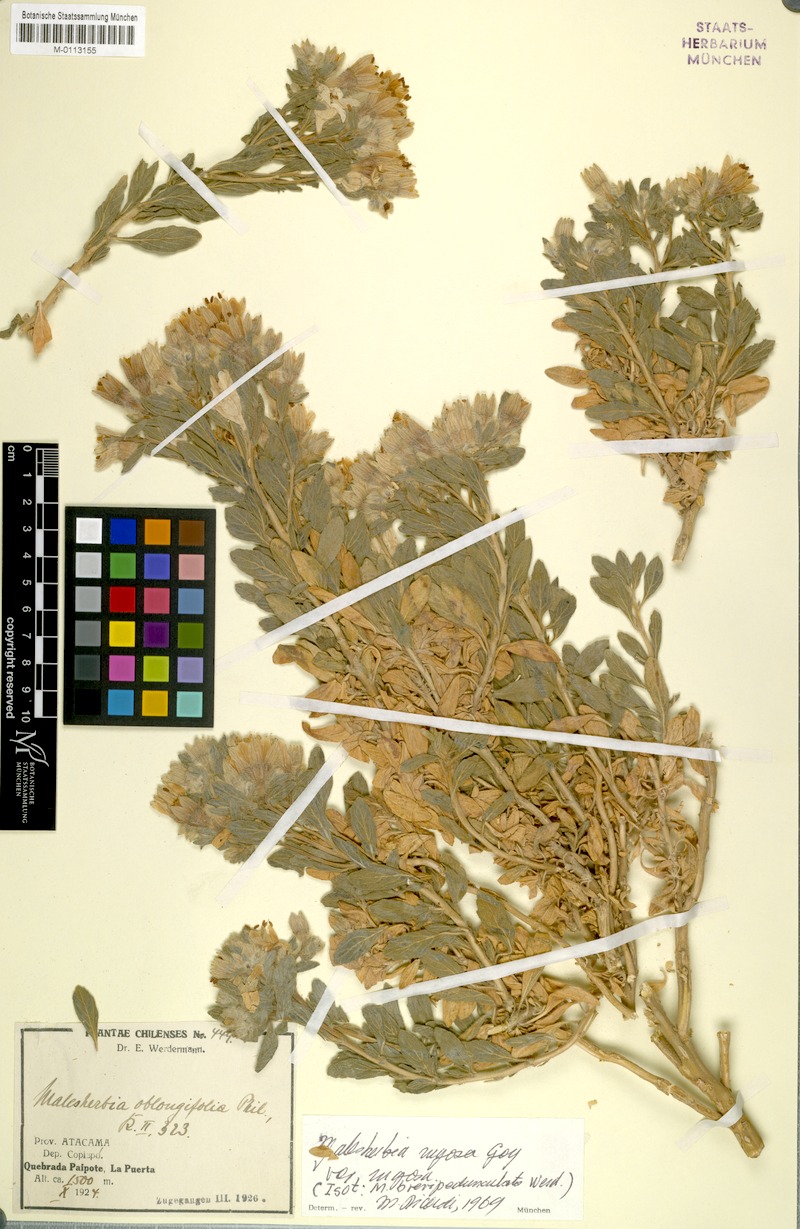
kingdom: Plantae
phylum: Tracheophyta
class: Magnoliopsida
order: Malpighiales
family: Malesherbiaceae
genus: Malesherbia
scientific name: Malesherbia solanoides
